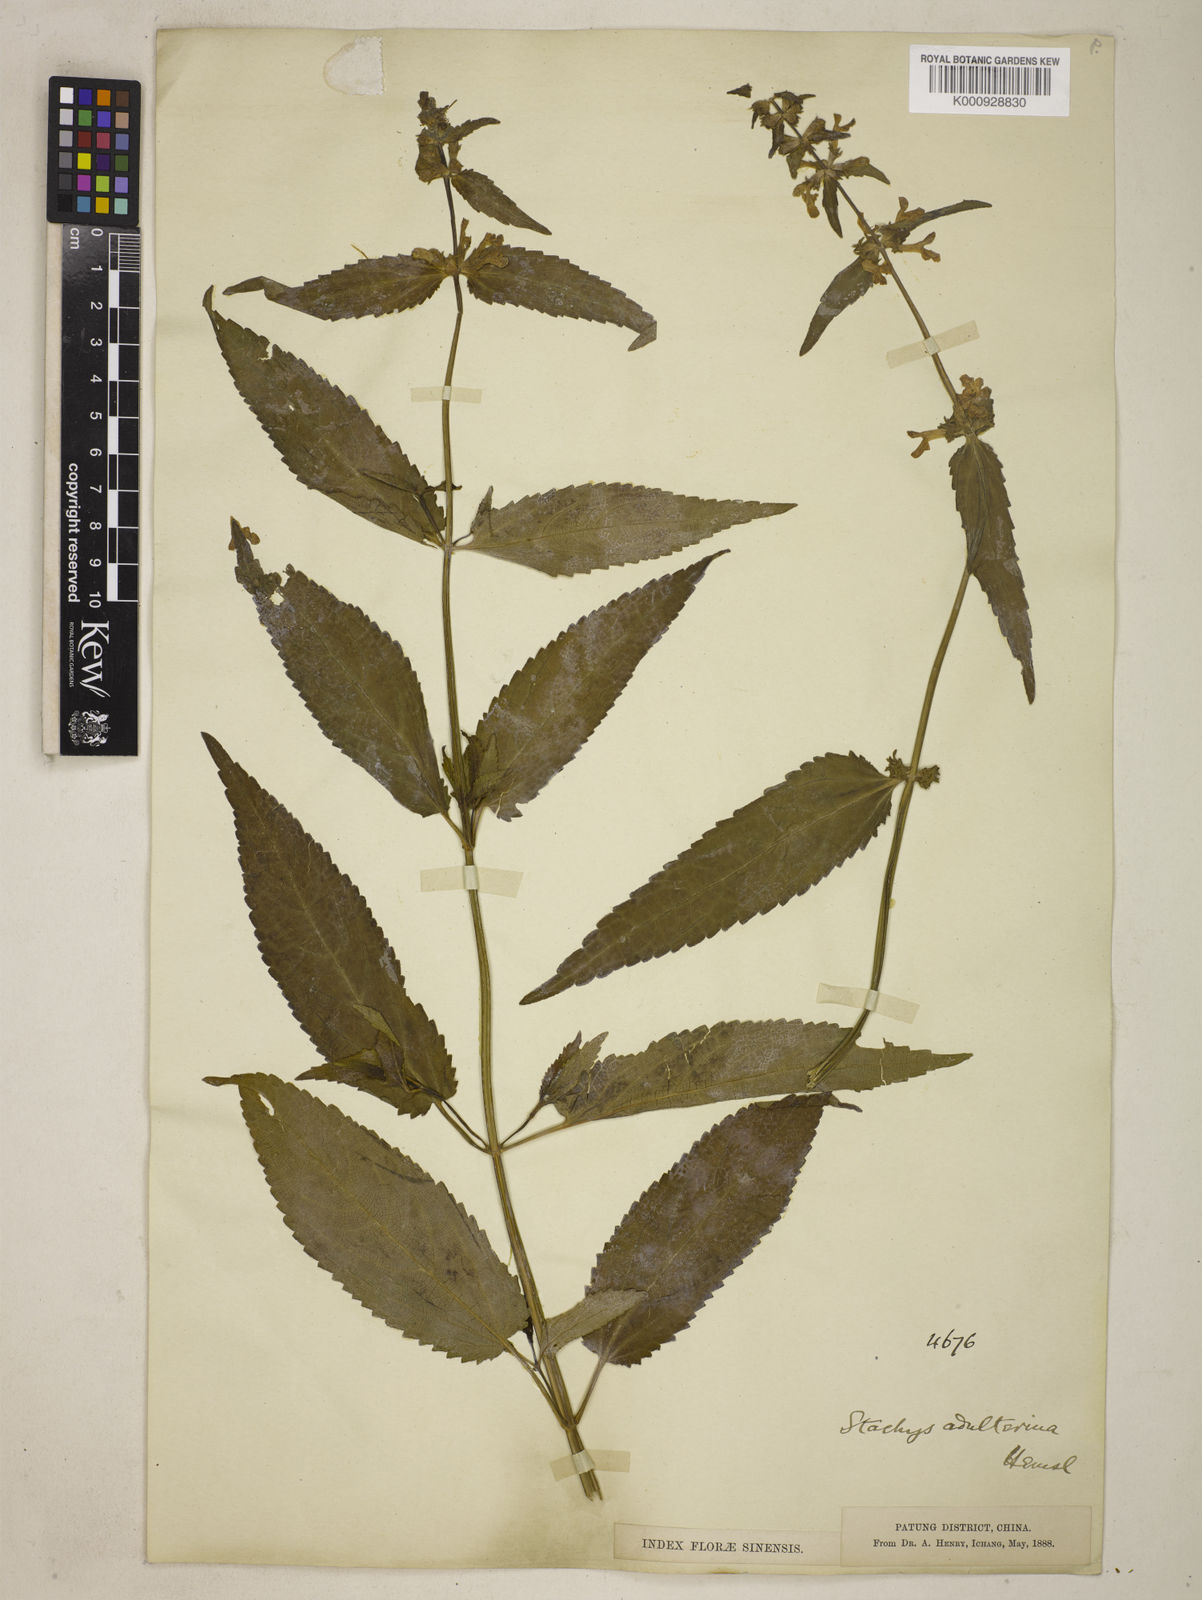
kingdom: Plantae
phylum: Tracheophyta
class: Magnoliopsida
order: Lamiales
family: Lamiaceae
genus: Stachys
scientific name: Stachys adulterina
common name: Hubei-artichoke
